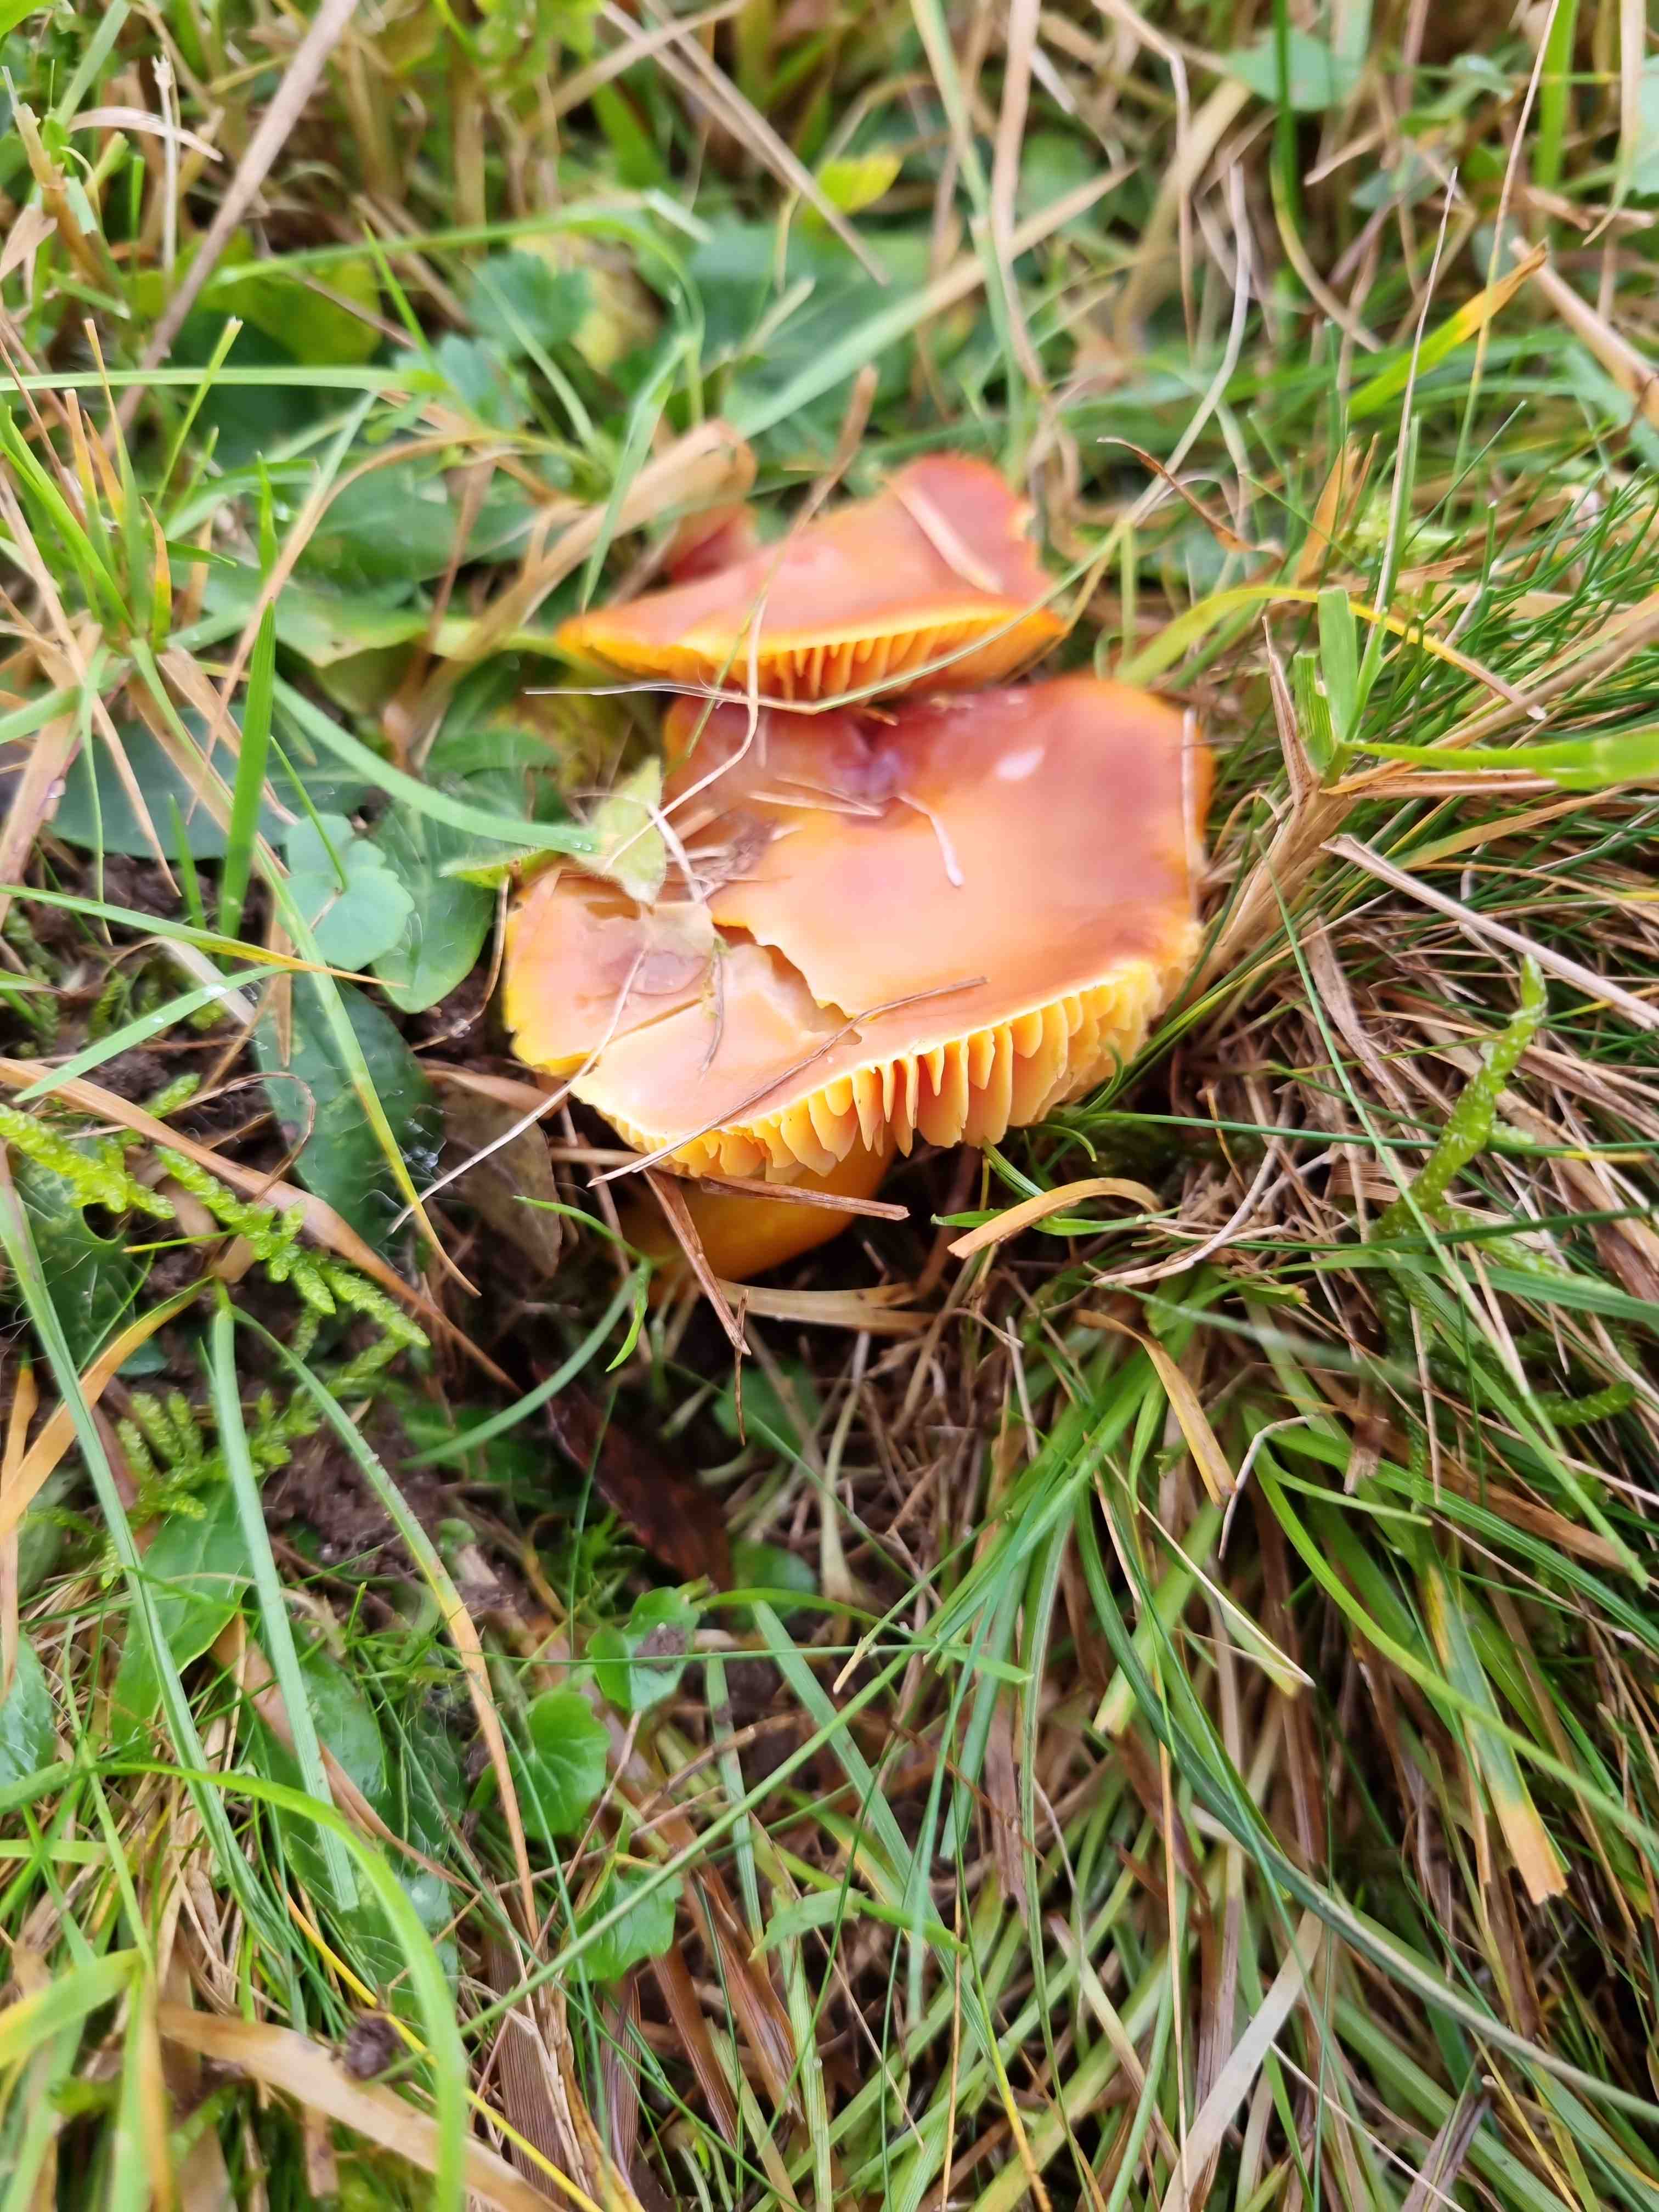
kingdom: Fungi
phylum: Basidiomycota
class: Agaricomycetes
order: Agaricales
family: Hygrophoraceae
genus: Hygrocybe
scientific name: Hygrocybe punicea
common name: skarlagen-vokshat
